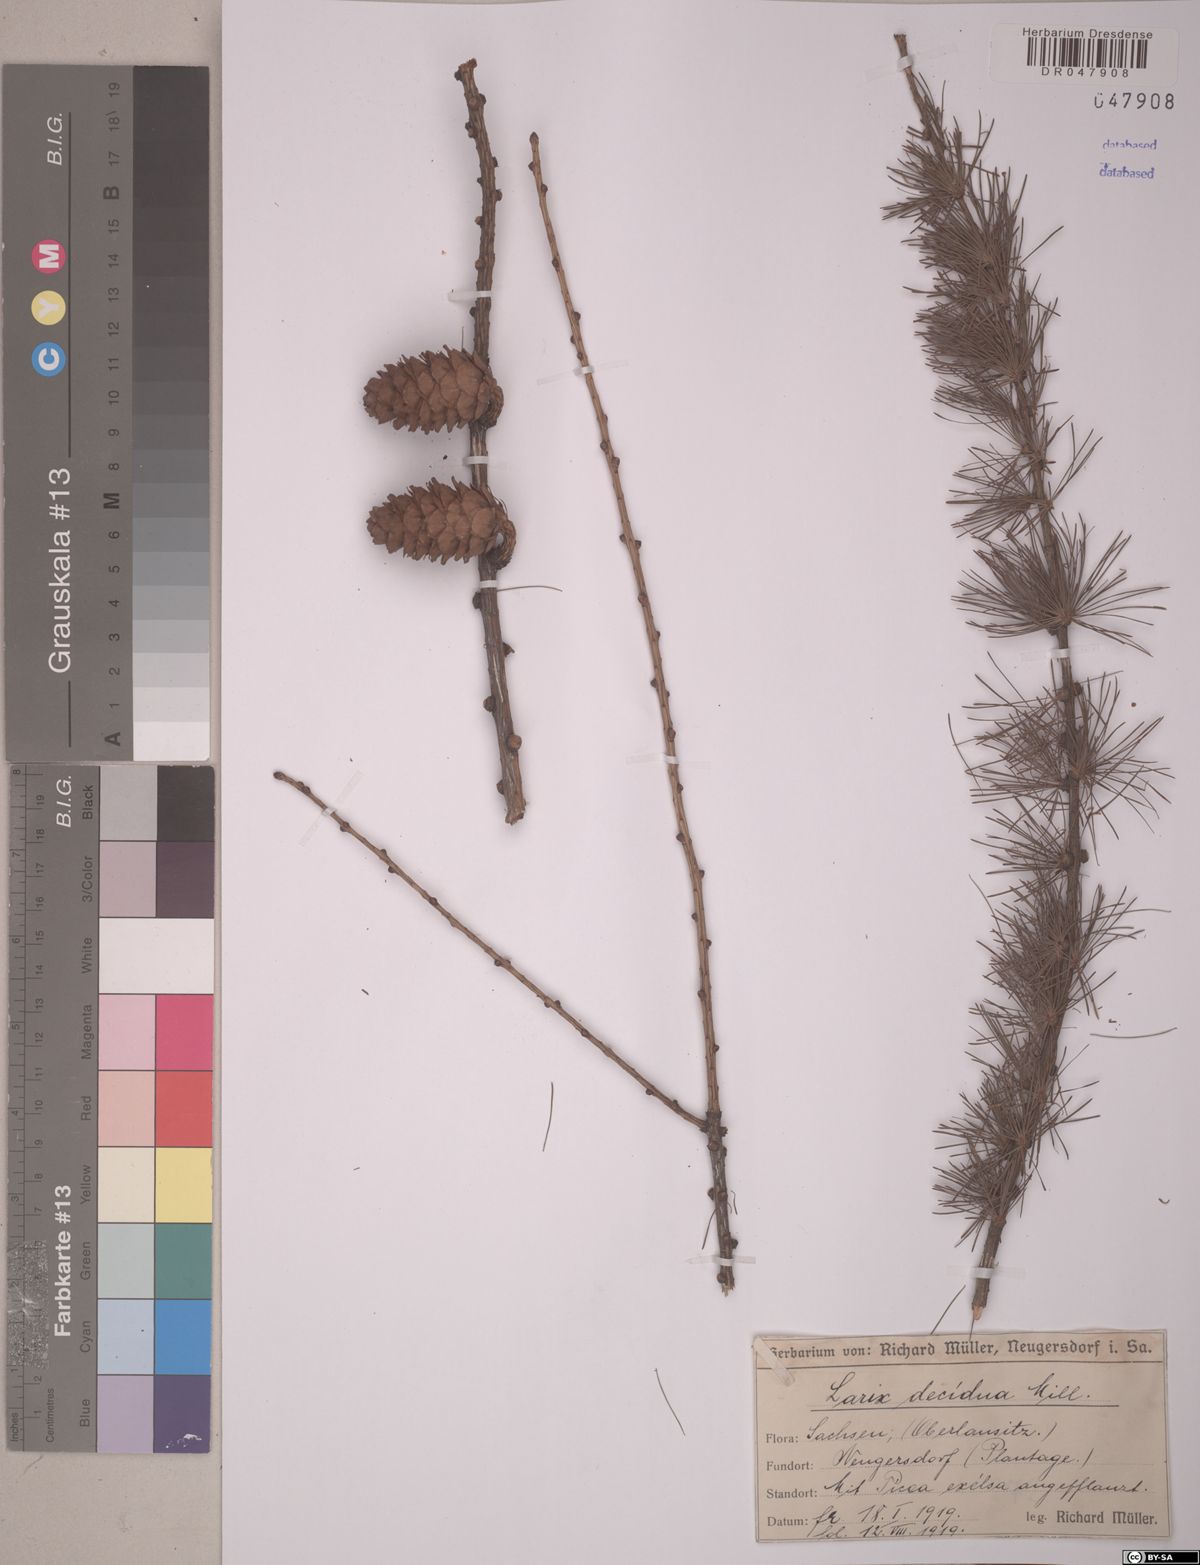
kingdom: Plantae
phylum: Tracheophyta
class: Pinopsida
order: Pinales
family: Pinaceae
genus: Larix
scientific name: Larix decidua
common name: European larch
